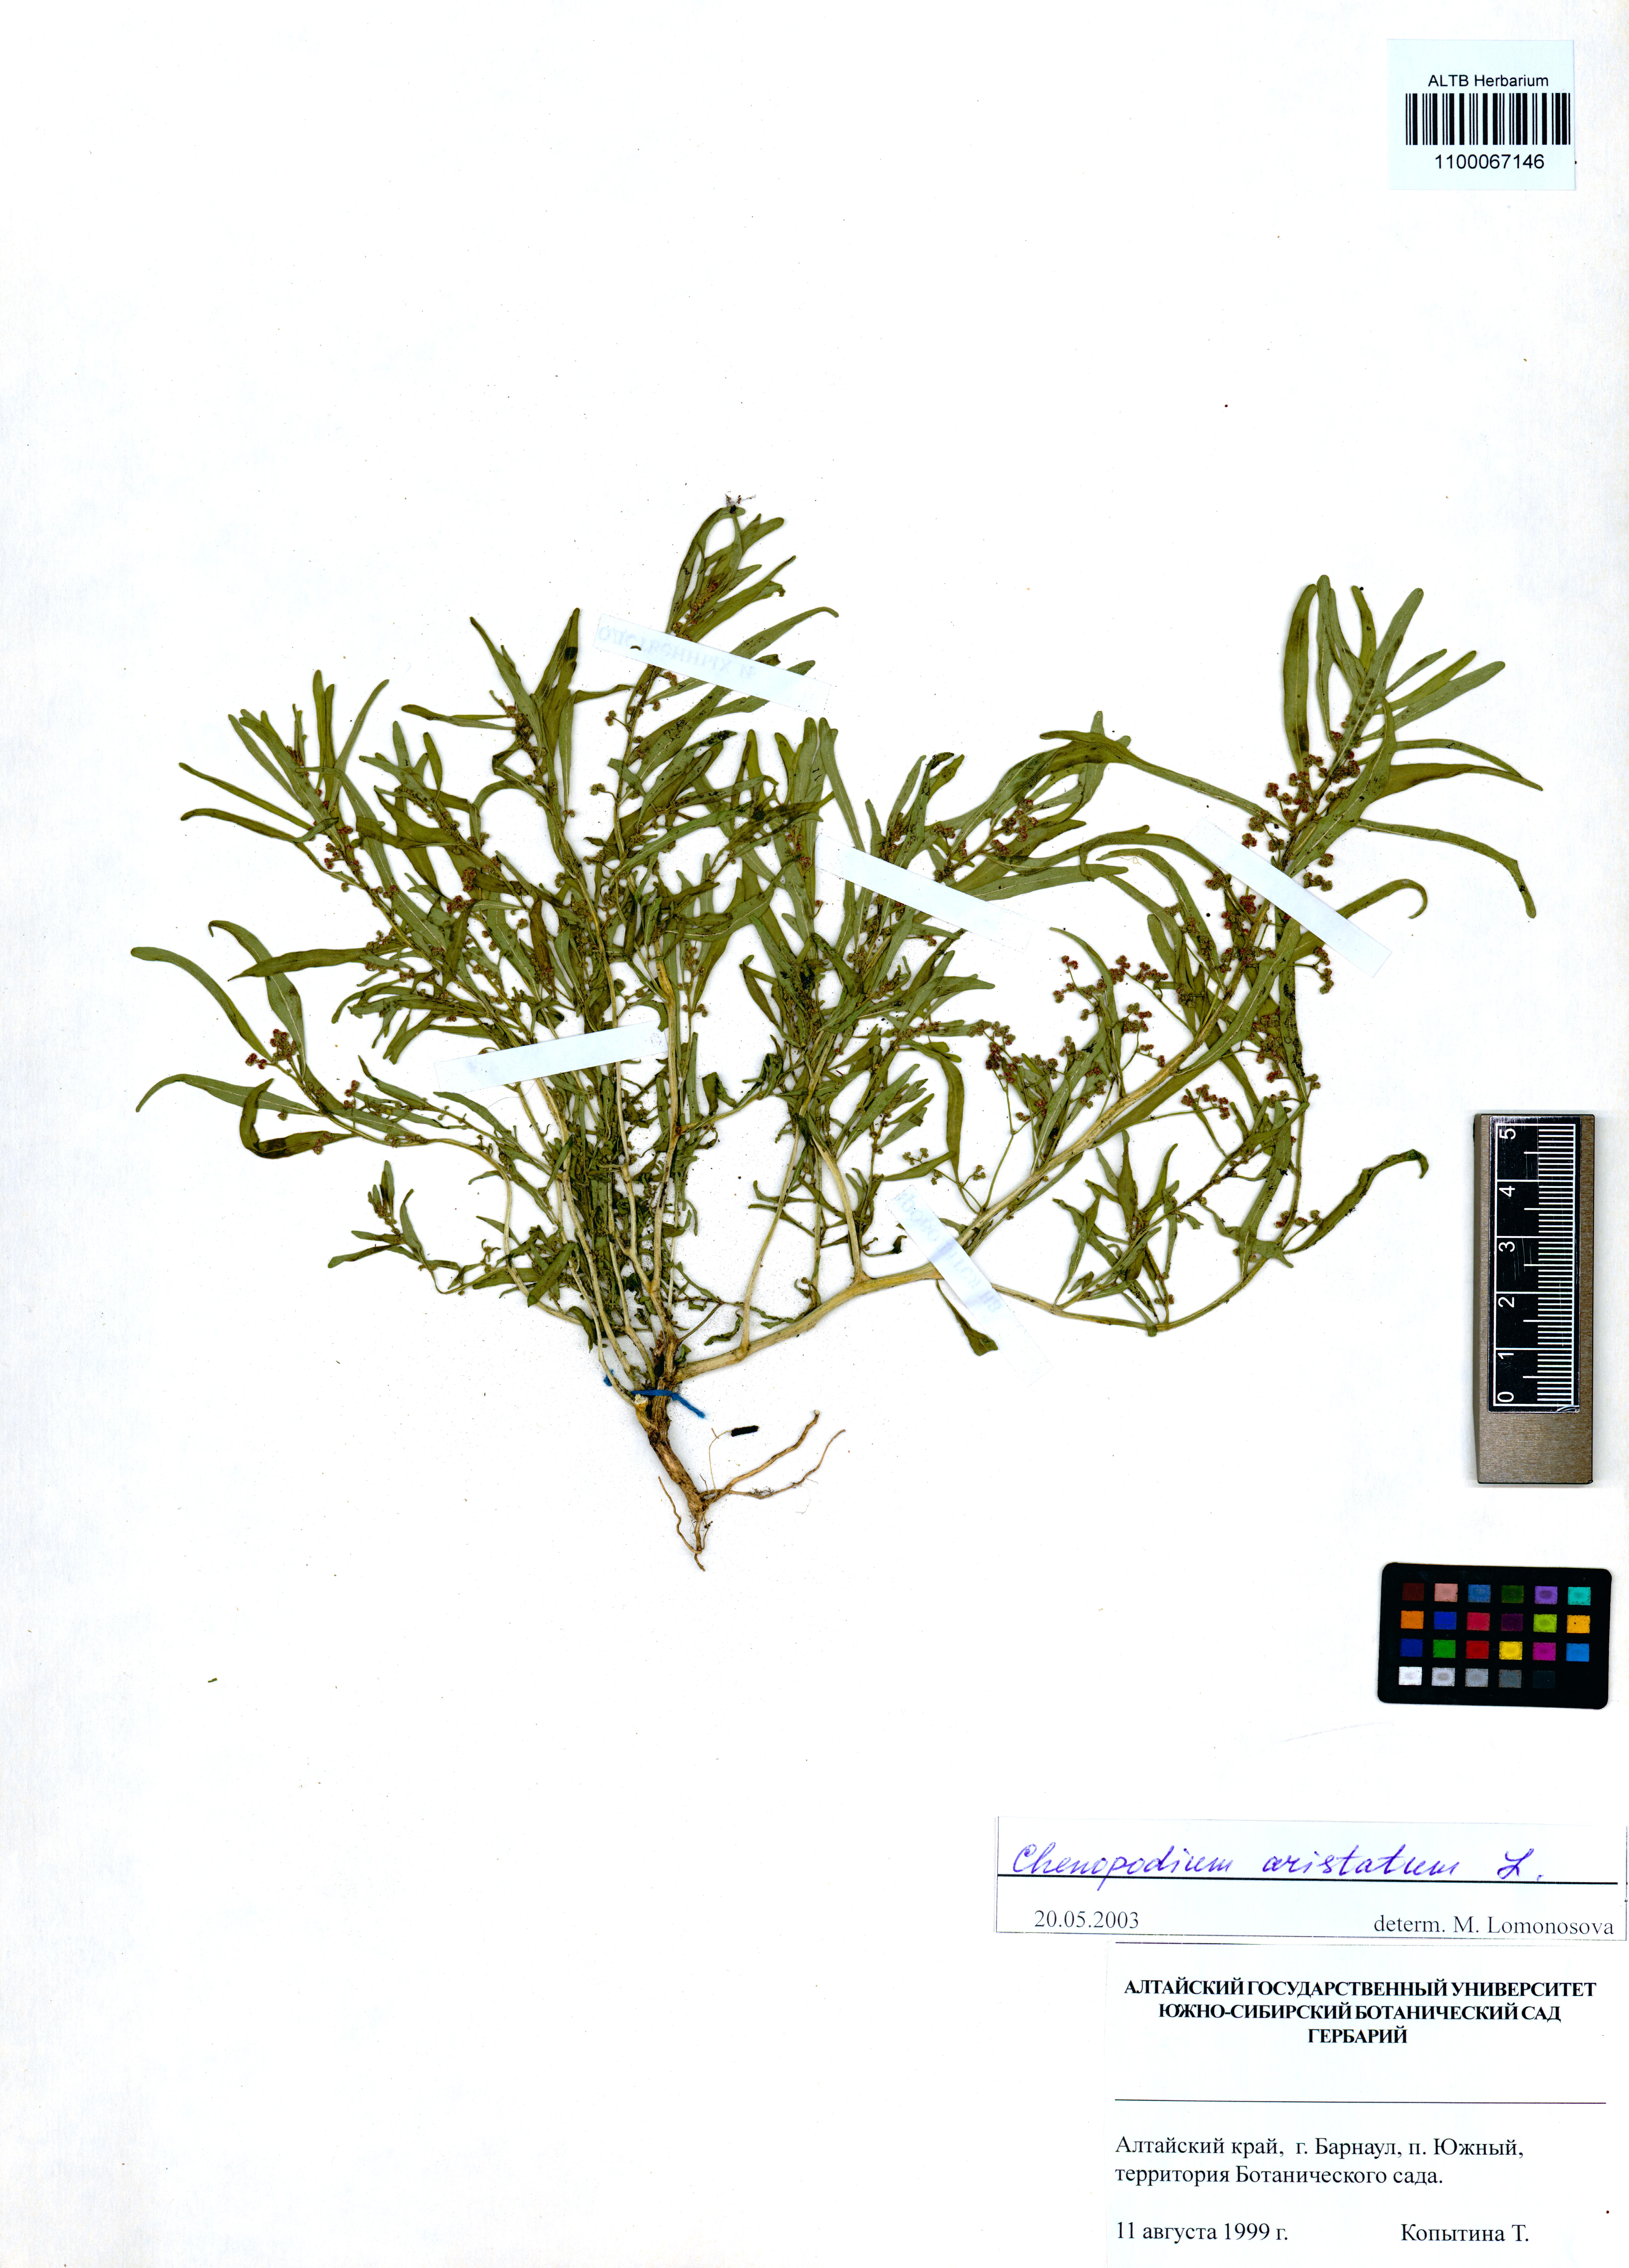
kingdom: Plantae
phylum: Tracheophyta
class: Magnoliopsida
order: Caryophyllales
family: Amaranthaceae
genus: Teloxys
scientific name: Teloxys aristata
